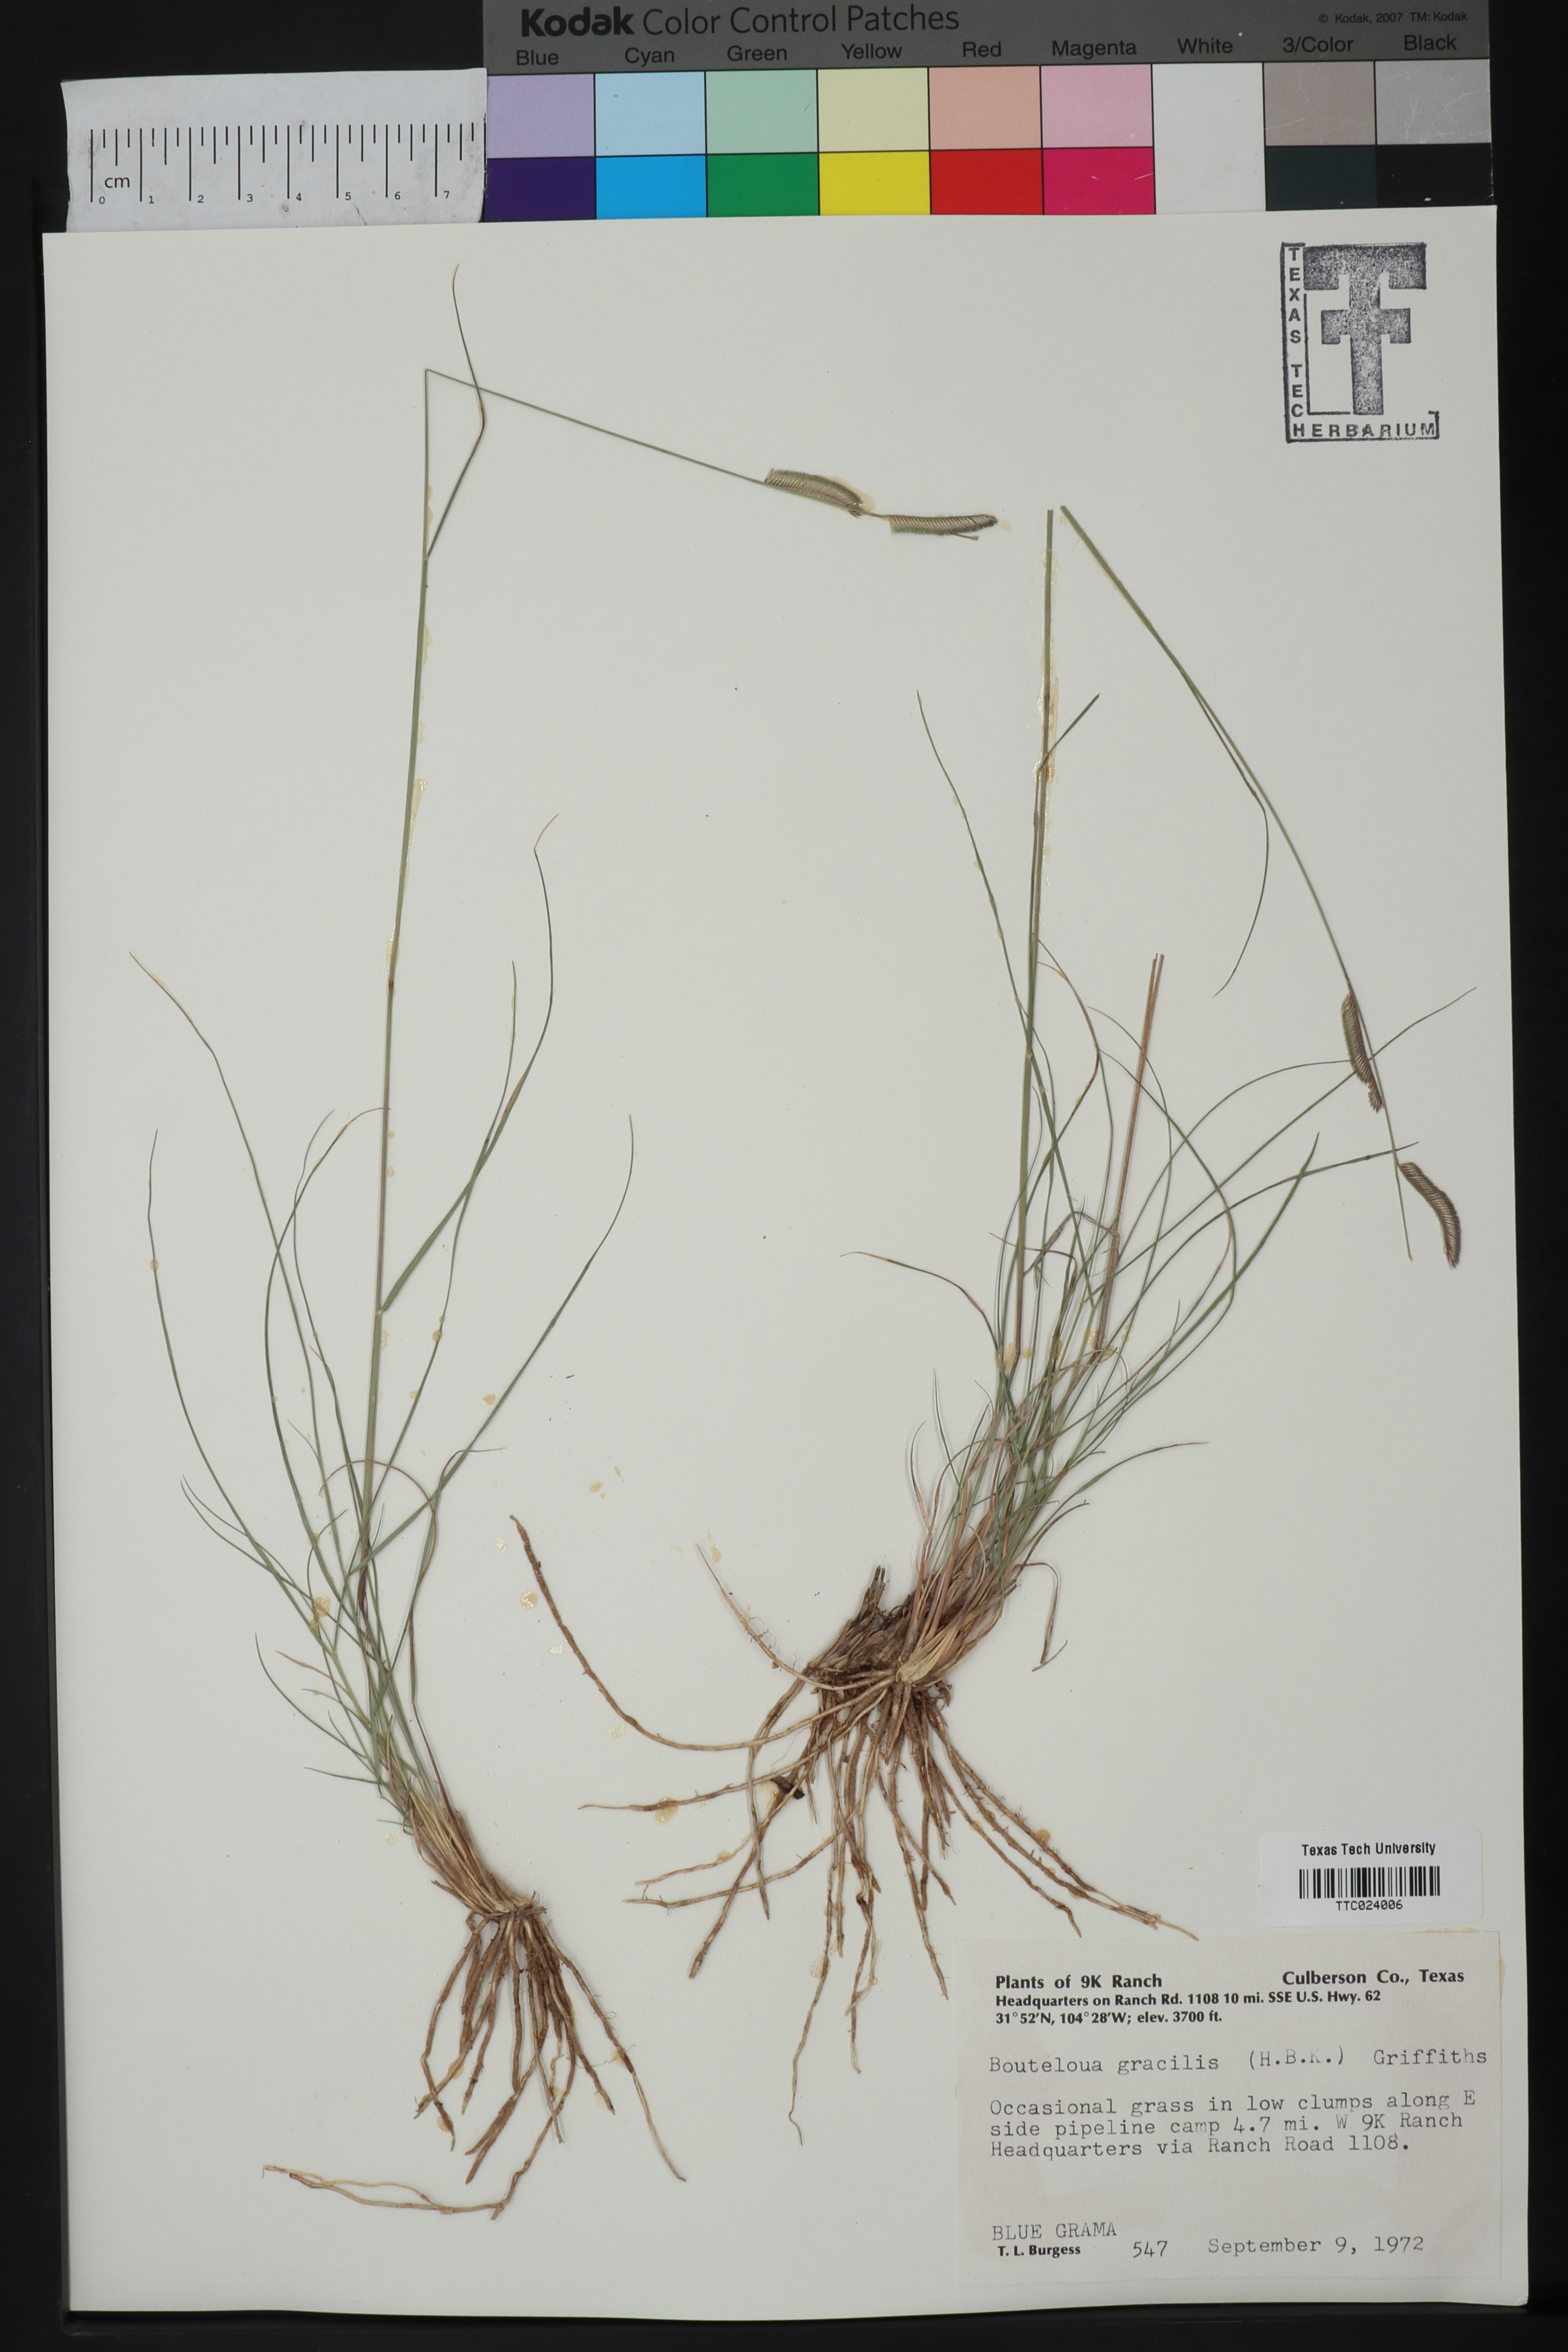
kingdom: Plantae
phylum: Tracheophyta
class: Liliopsida
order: Poales
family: Poaceae
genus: Bouteloua
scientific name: Bouteloua gracilis
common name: Blue grama
